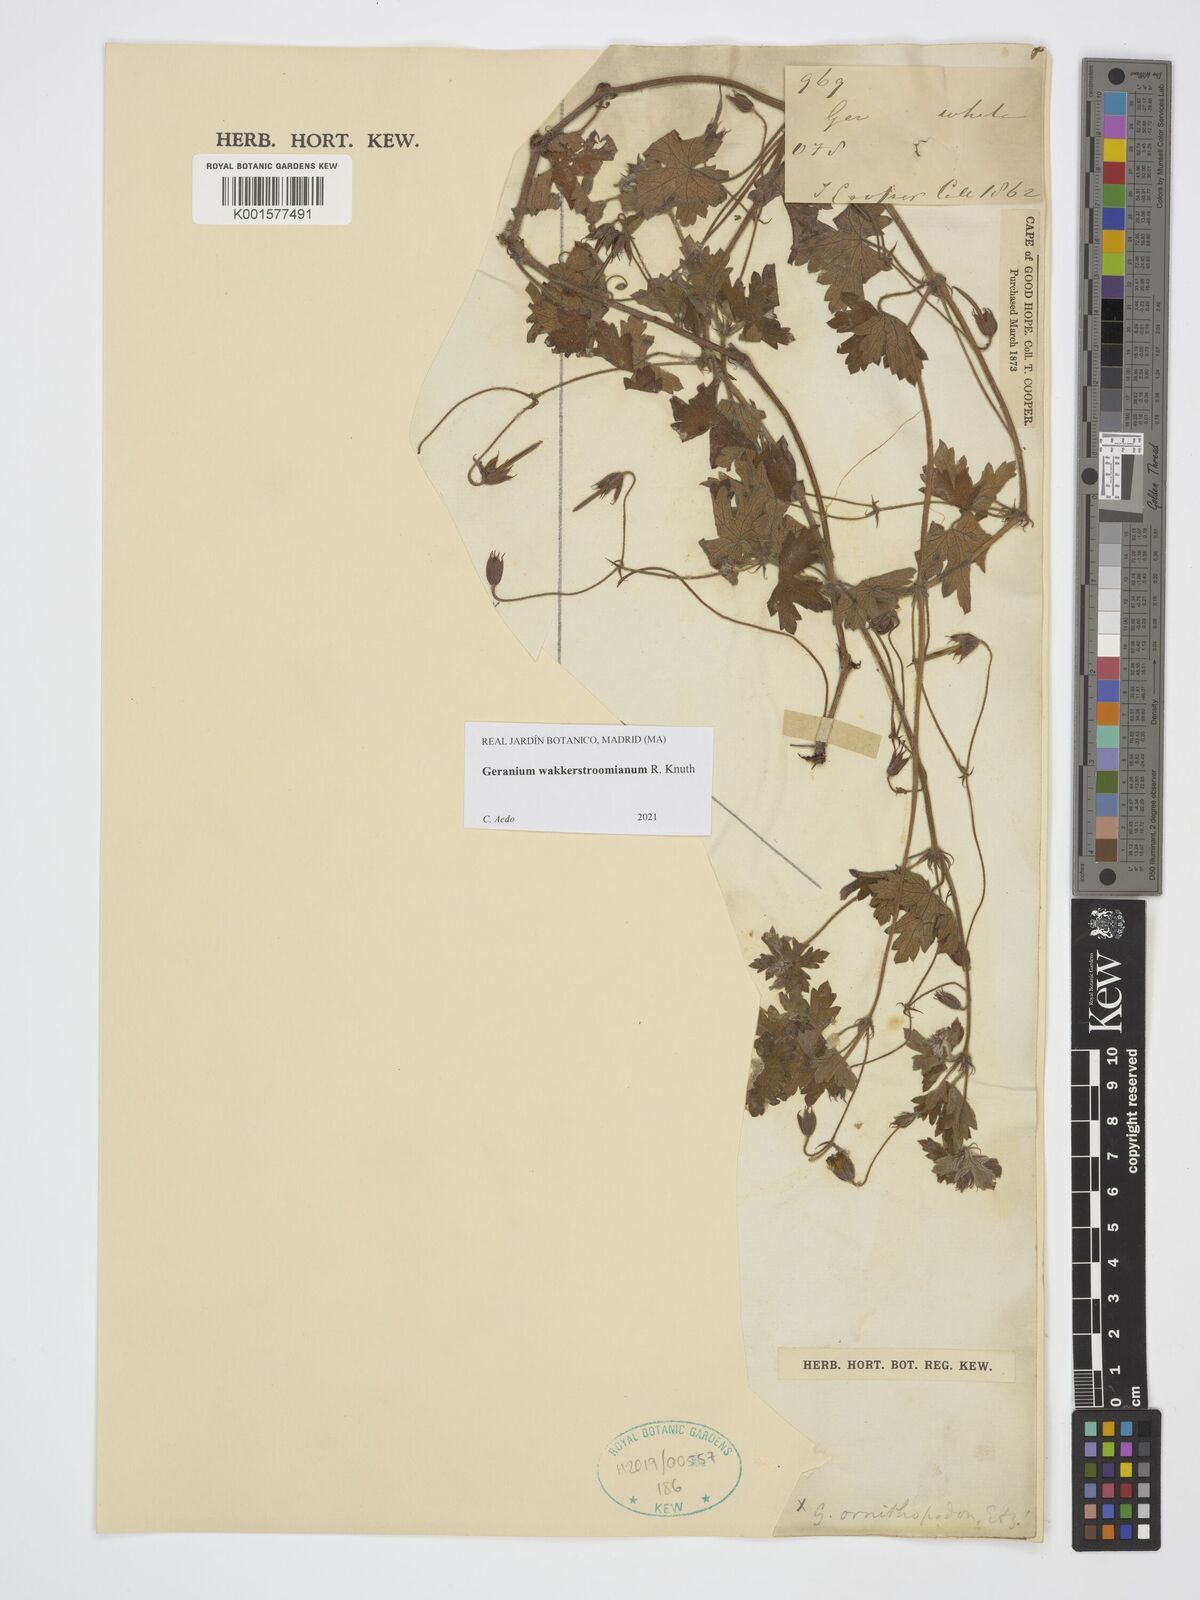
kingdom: Plantae
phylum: Tracheophyta
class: Magnoliopsida
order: Geraniales
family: Geraniaceae
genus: Geranium
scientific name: Geranium wakkerstroomianum
